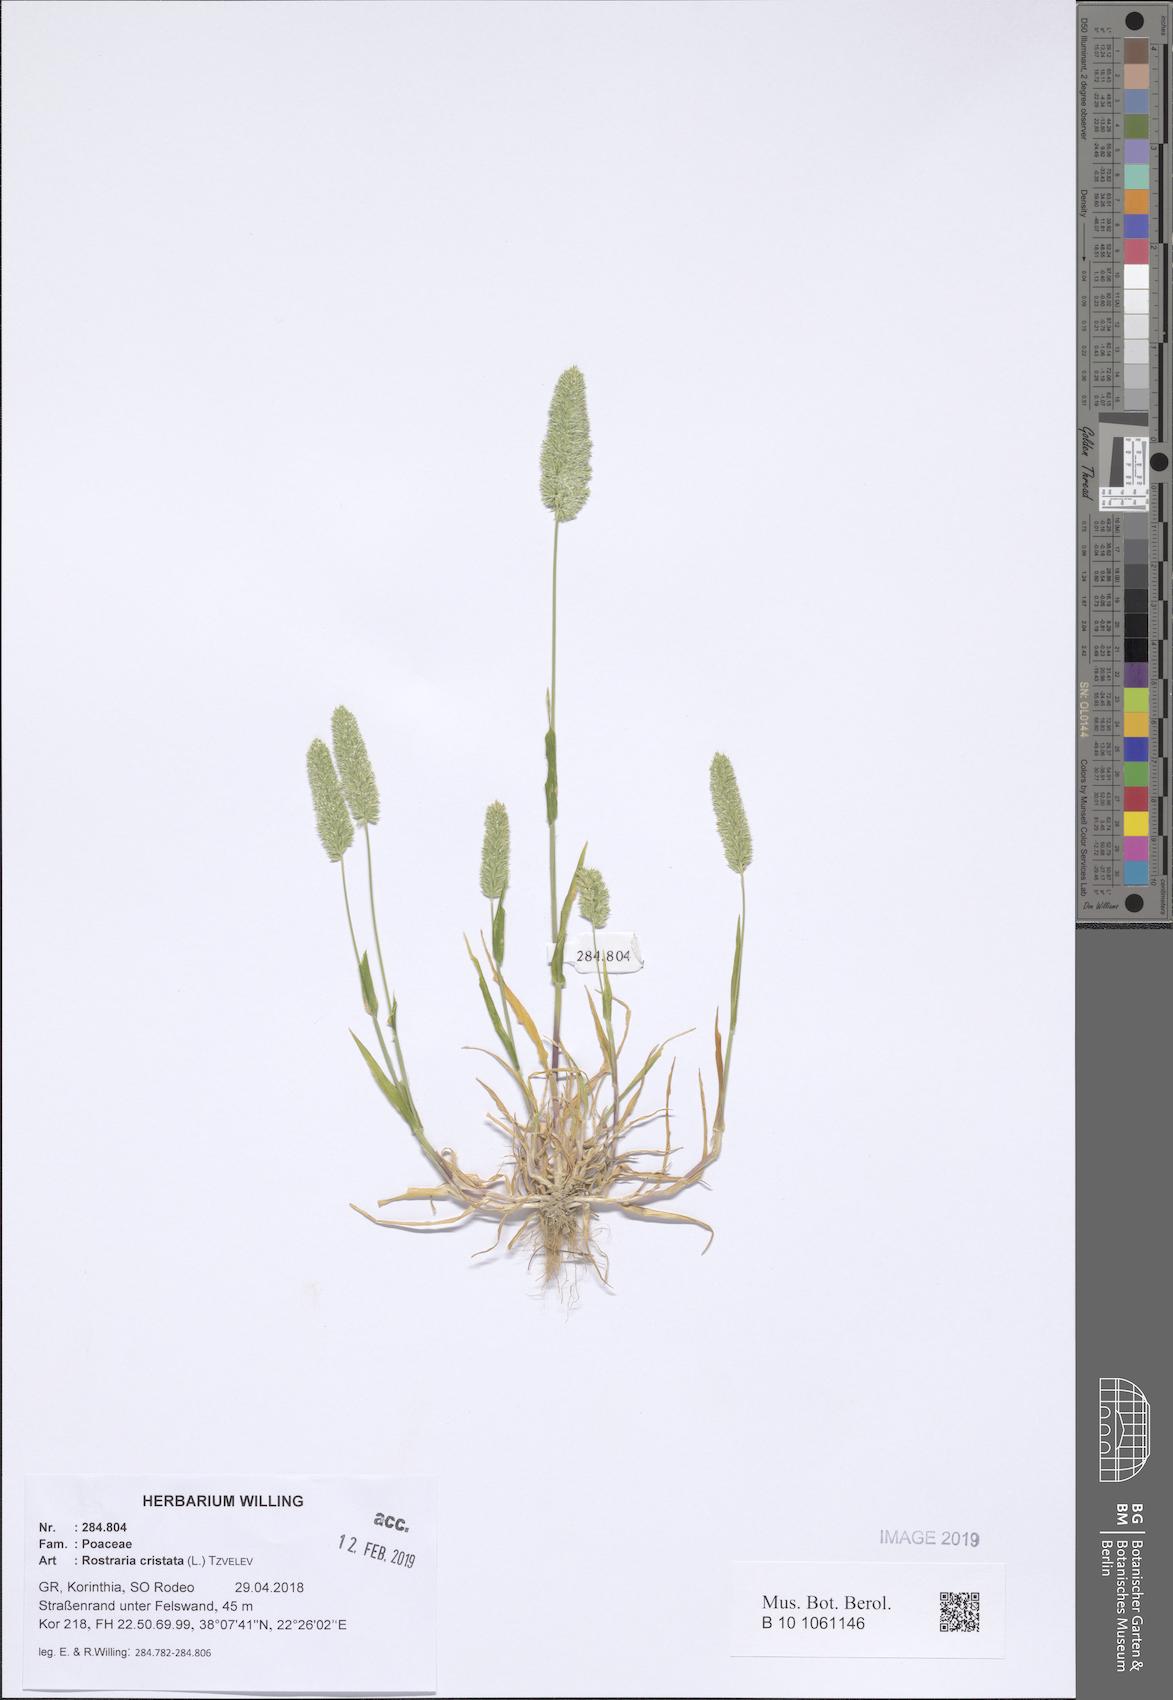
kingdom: Plantae
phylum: Tracheophyta
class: Liliopsida
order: Poales
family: Poaceae
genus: Rostraria
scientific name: Rostraria cristata
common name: Mediterranean hair-grass
